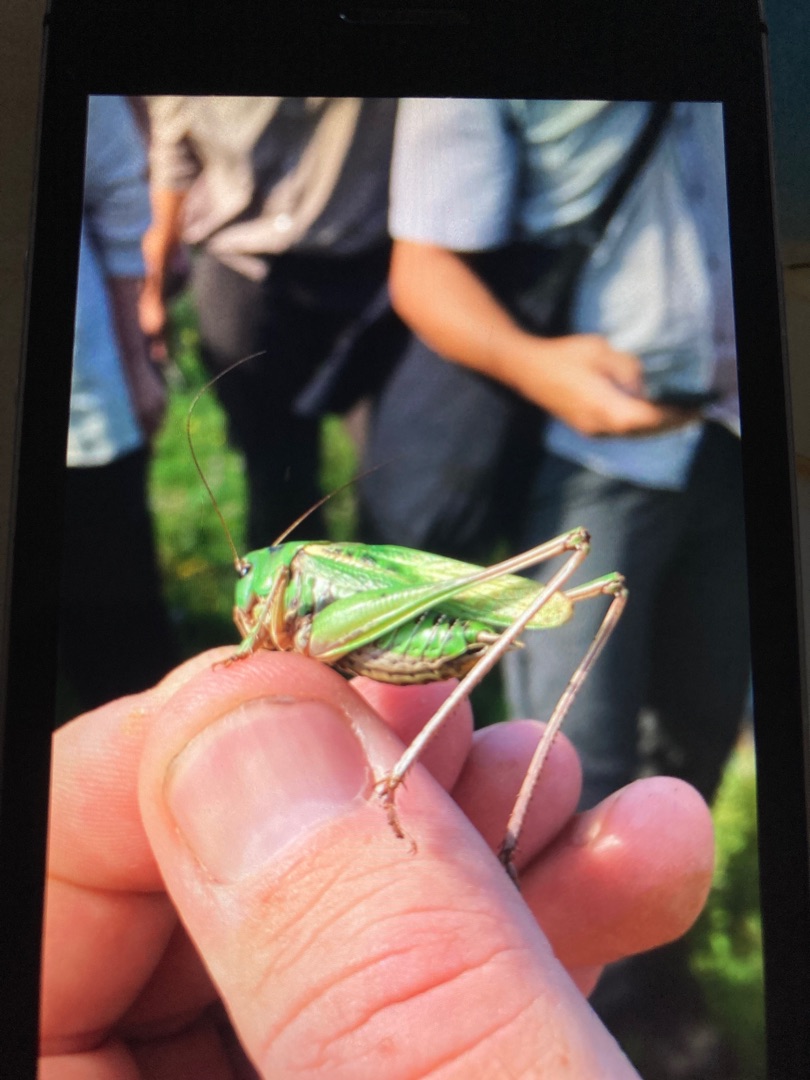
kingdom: Animalia
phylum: Arthropoda
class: Insecta
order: Orthoptera
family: Tettigoniidae
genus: Decticus
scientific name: Decticus verrucivorus
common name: Vortebider
